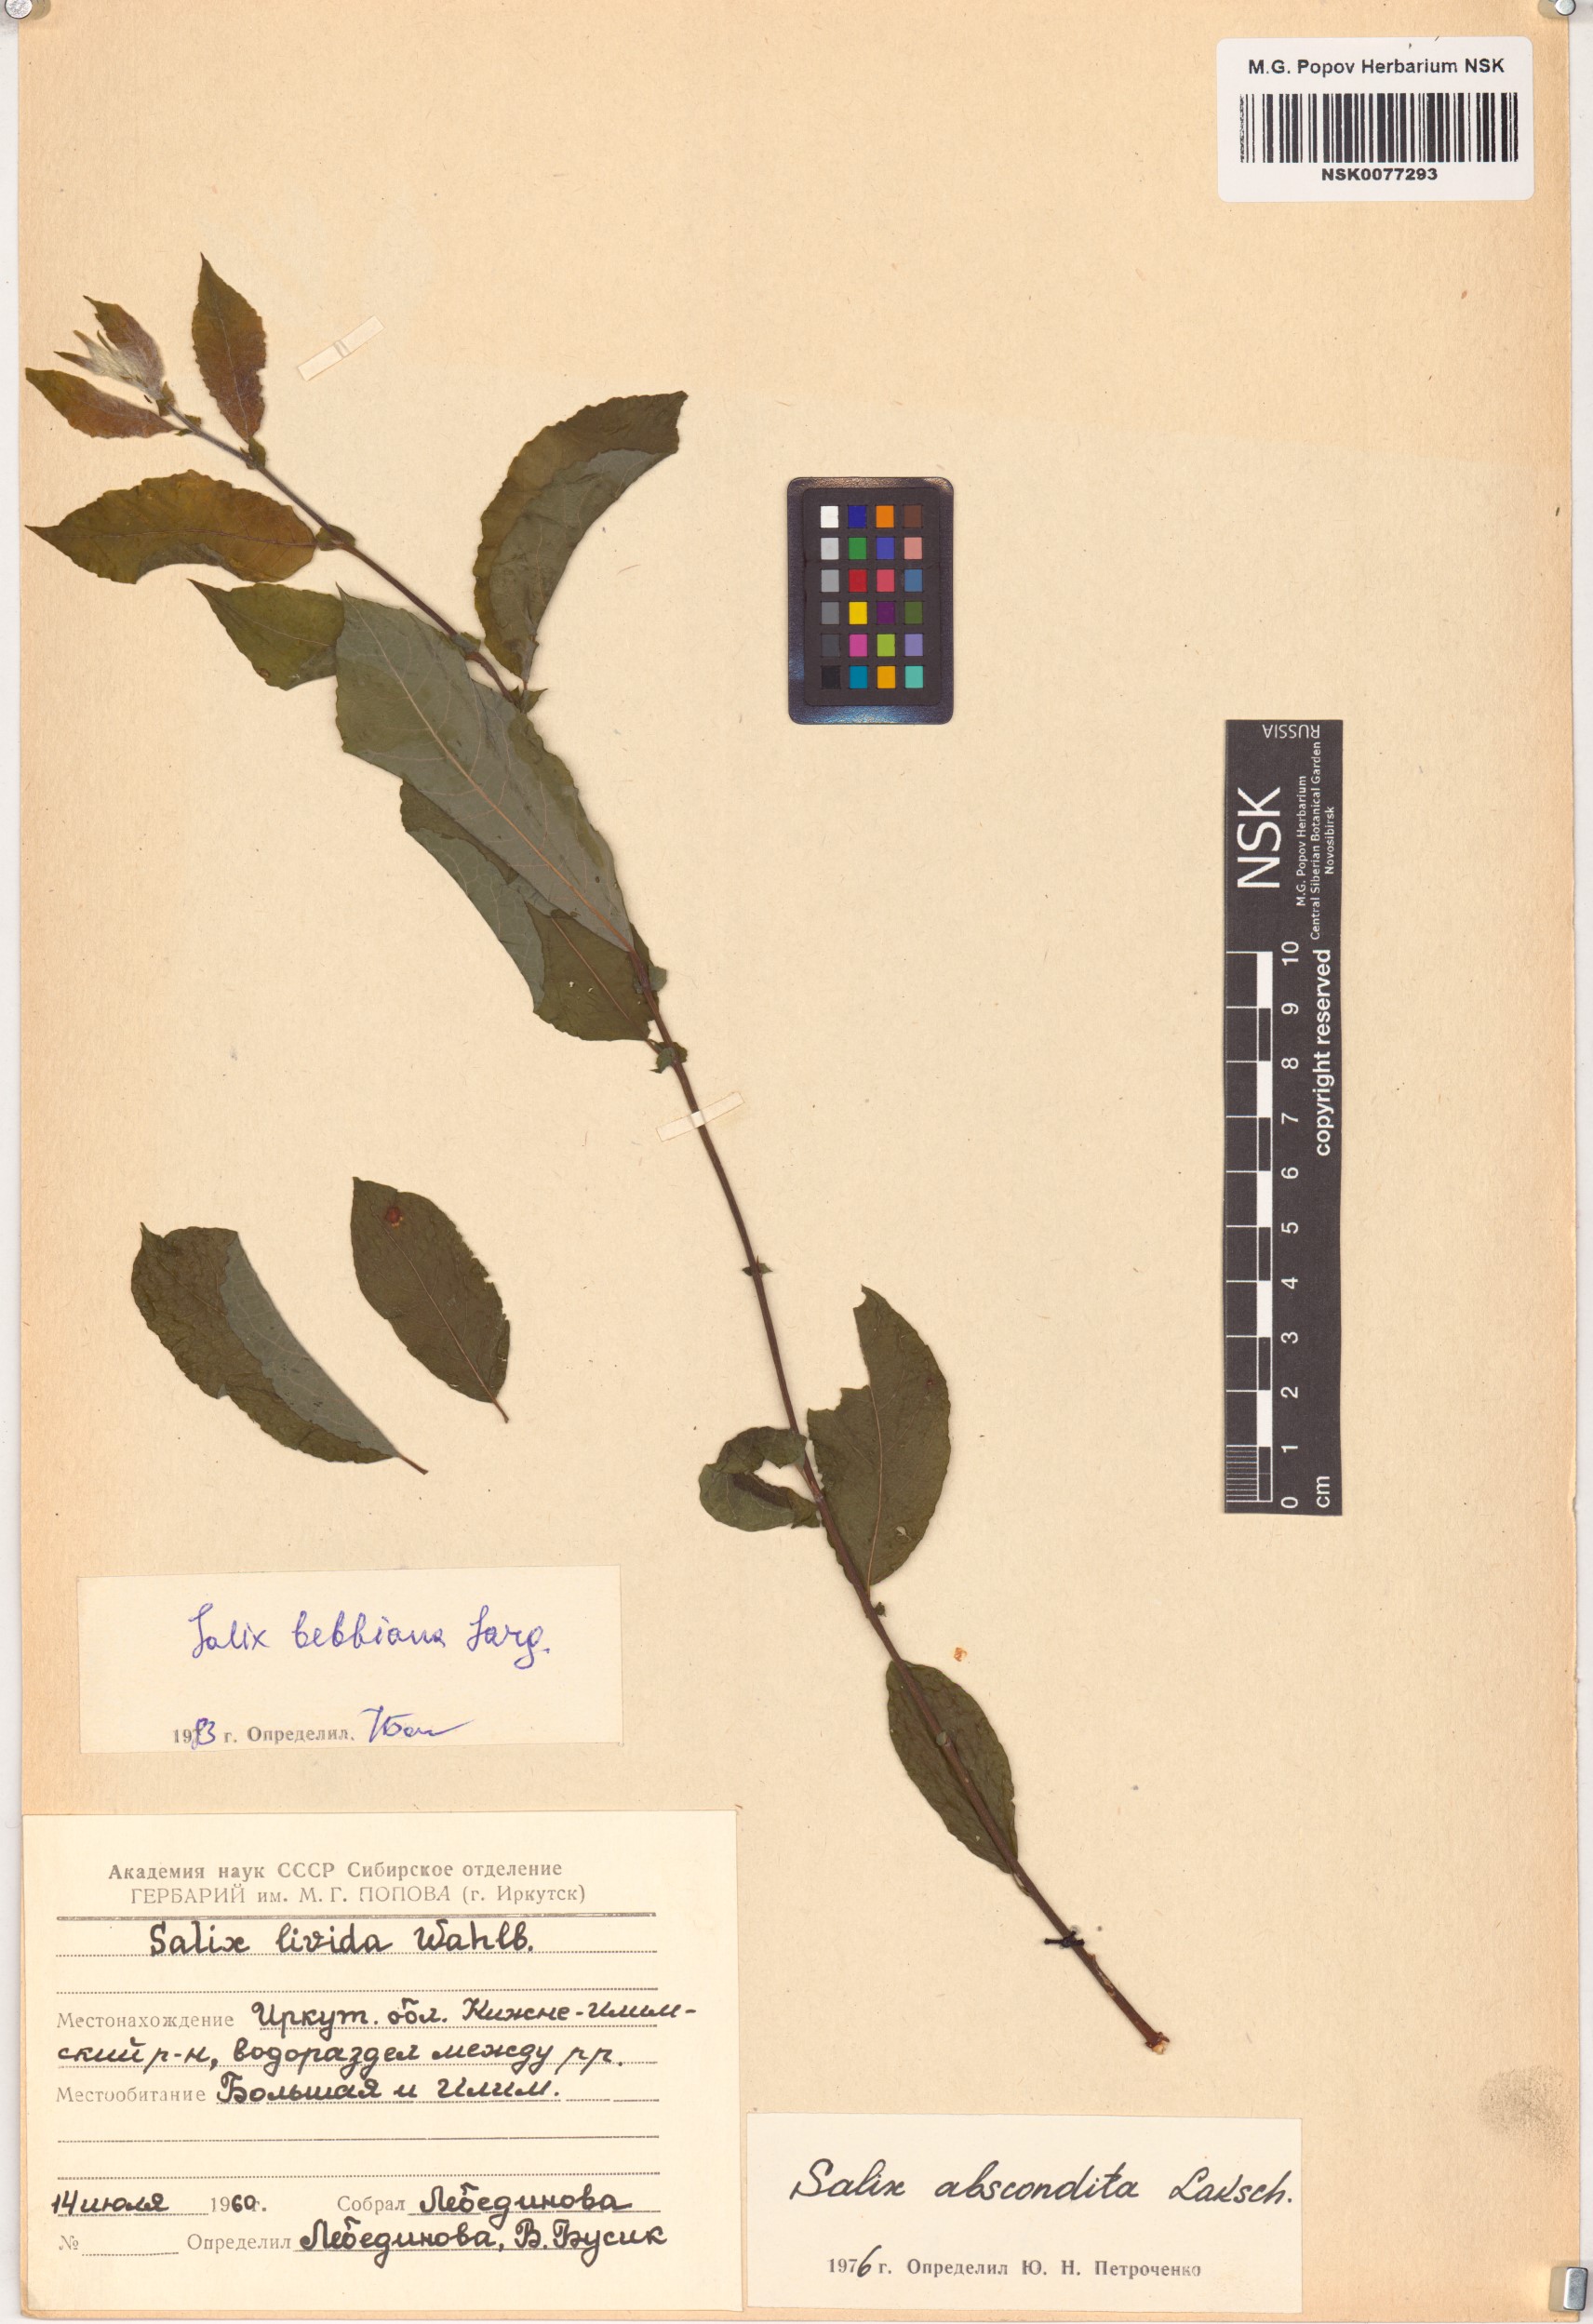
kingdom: Plantae
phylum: Tracheophyta
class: Magnoliopsida
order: Malpighiales
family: Salicaceae
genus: Salix
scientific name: Salix bebbiana
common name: Bebb's willow
